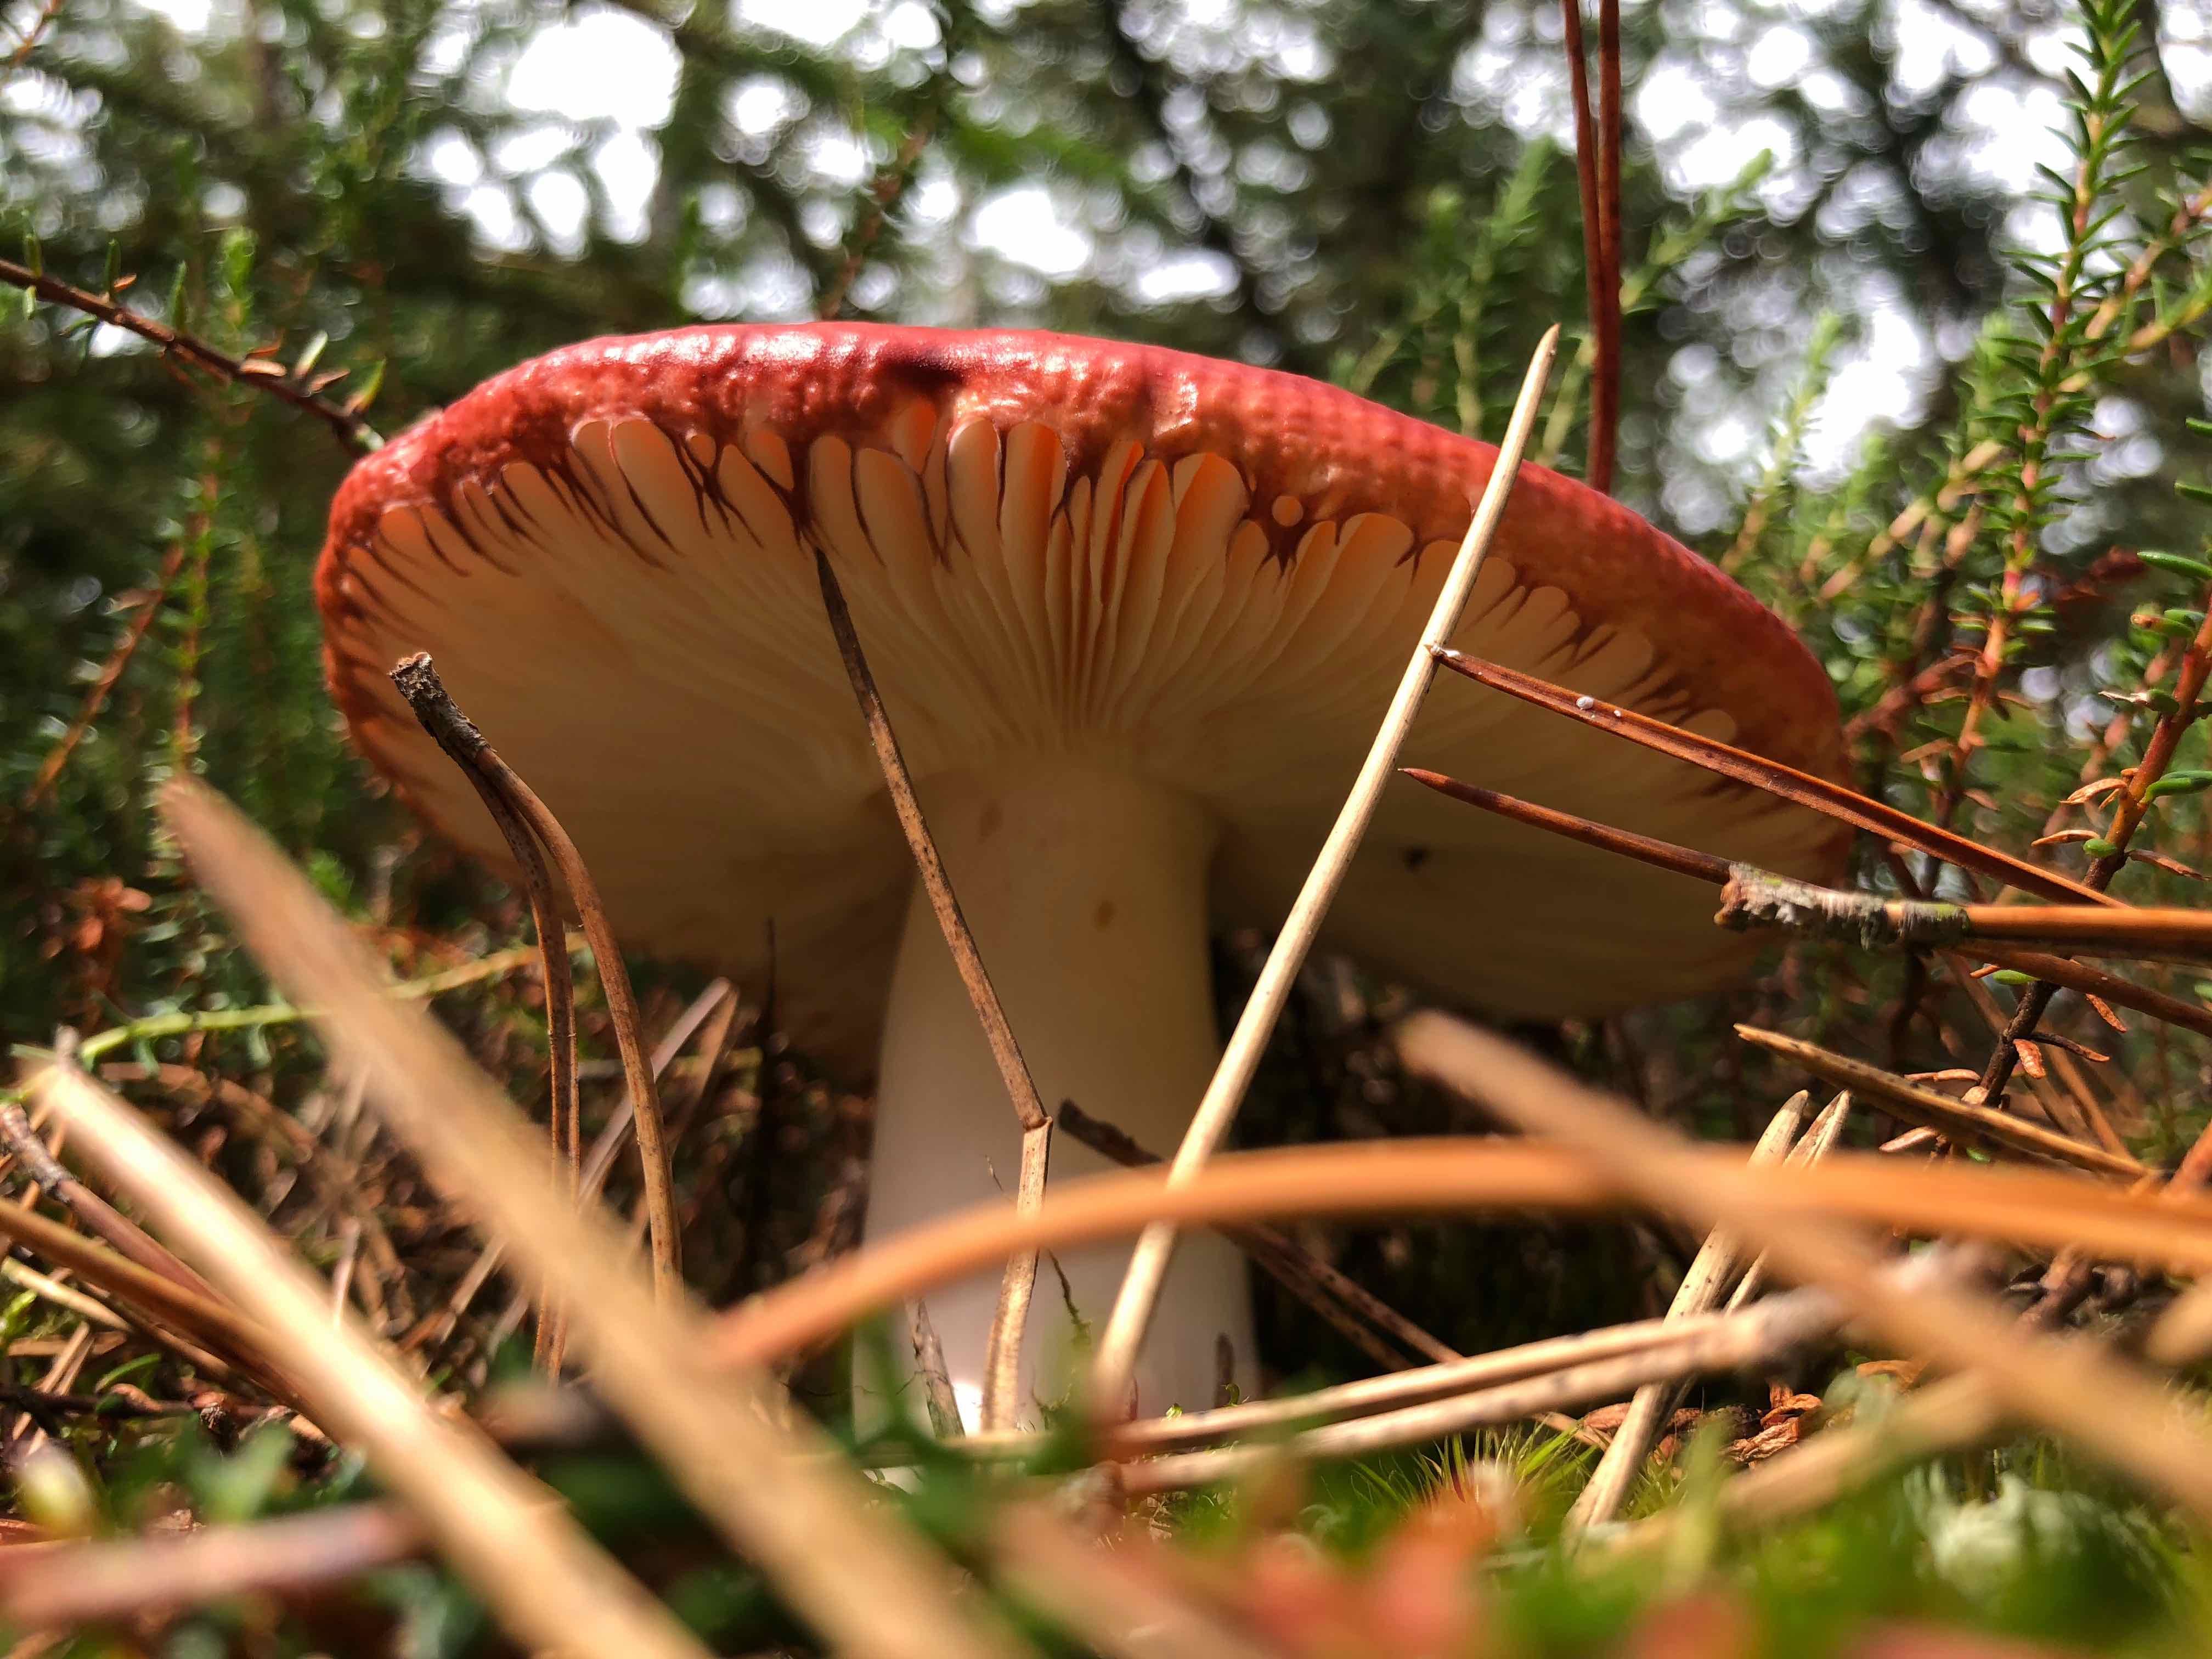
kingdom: Fungi
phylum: Basidiomycota
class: Agaricomycetes
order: Russulales
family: Russulaceae
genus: Russula
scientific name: Russula
